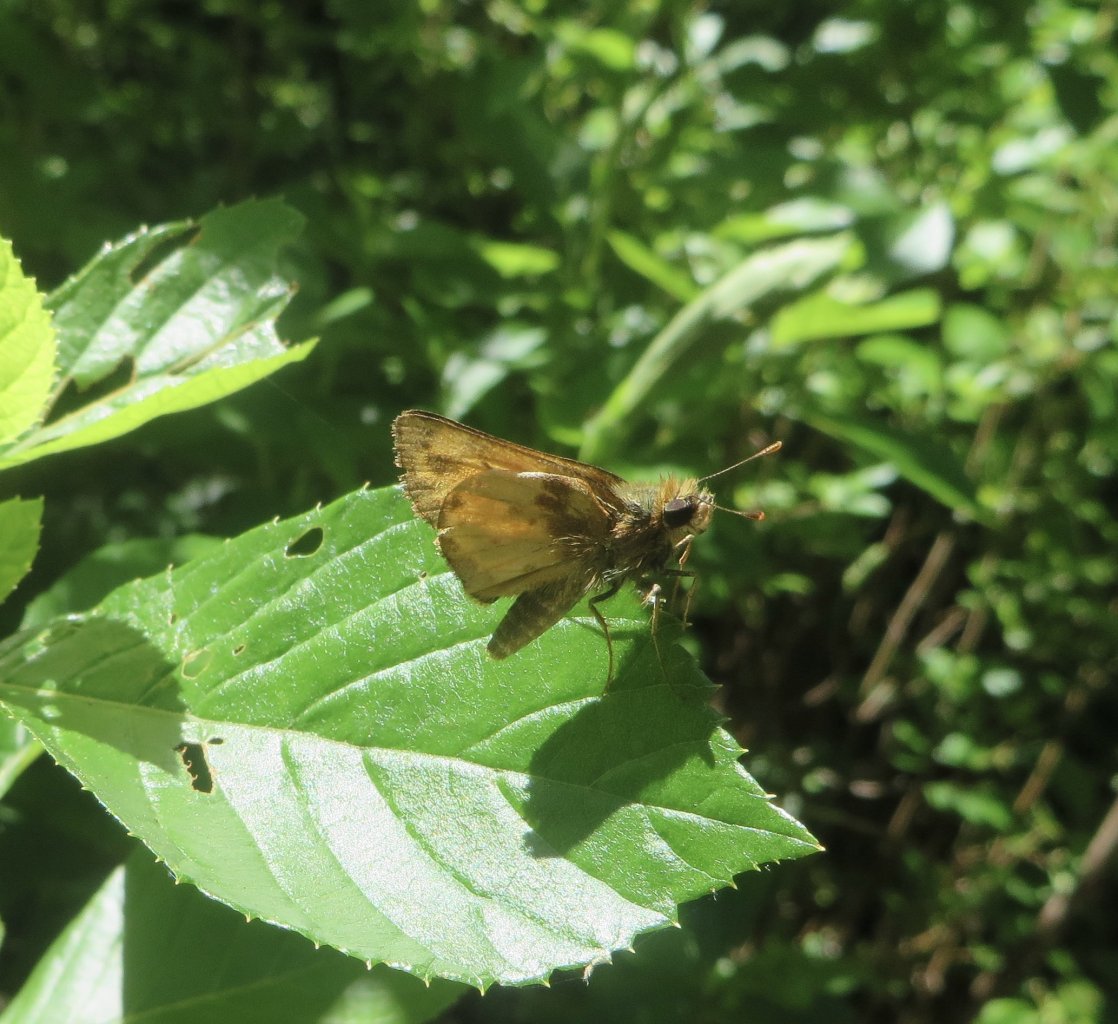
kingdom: Animalia
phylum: Arthropoda
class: Insecta
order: Lepidoptera
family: Hesperiidae
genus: Lon
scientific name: Lon zabulon
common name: Zabulon Skipper
